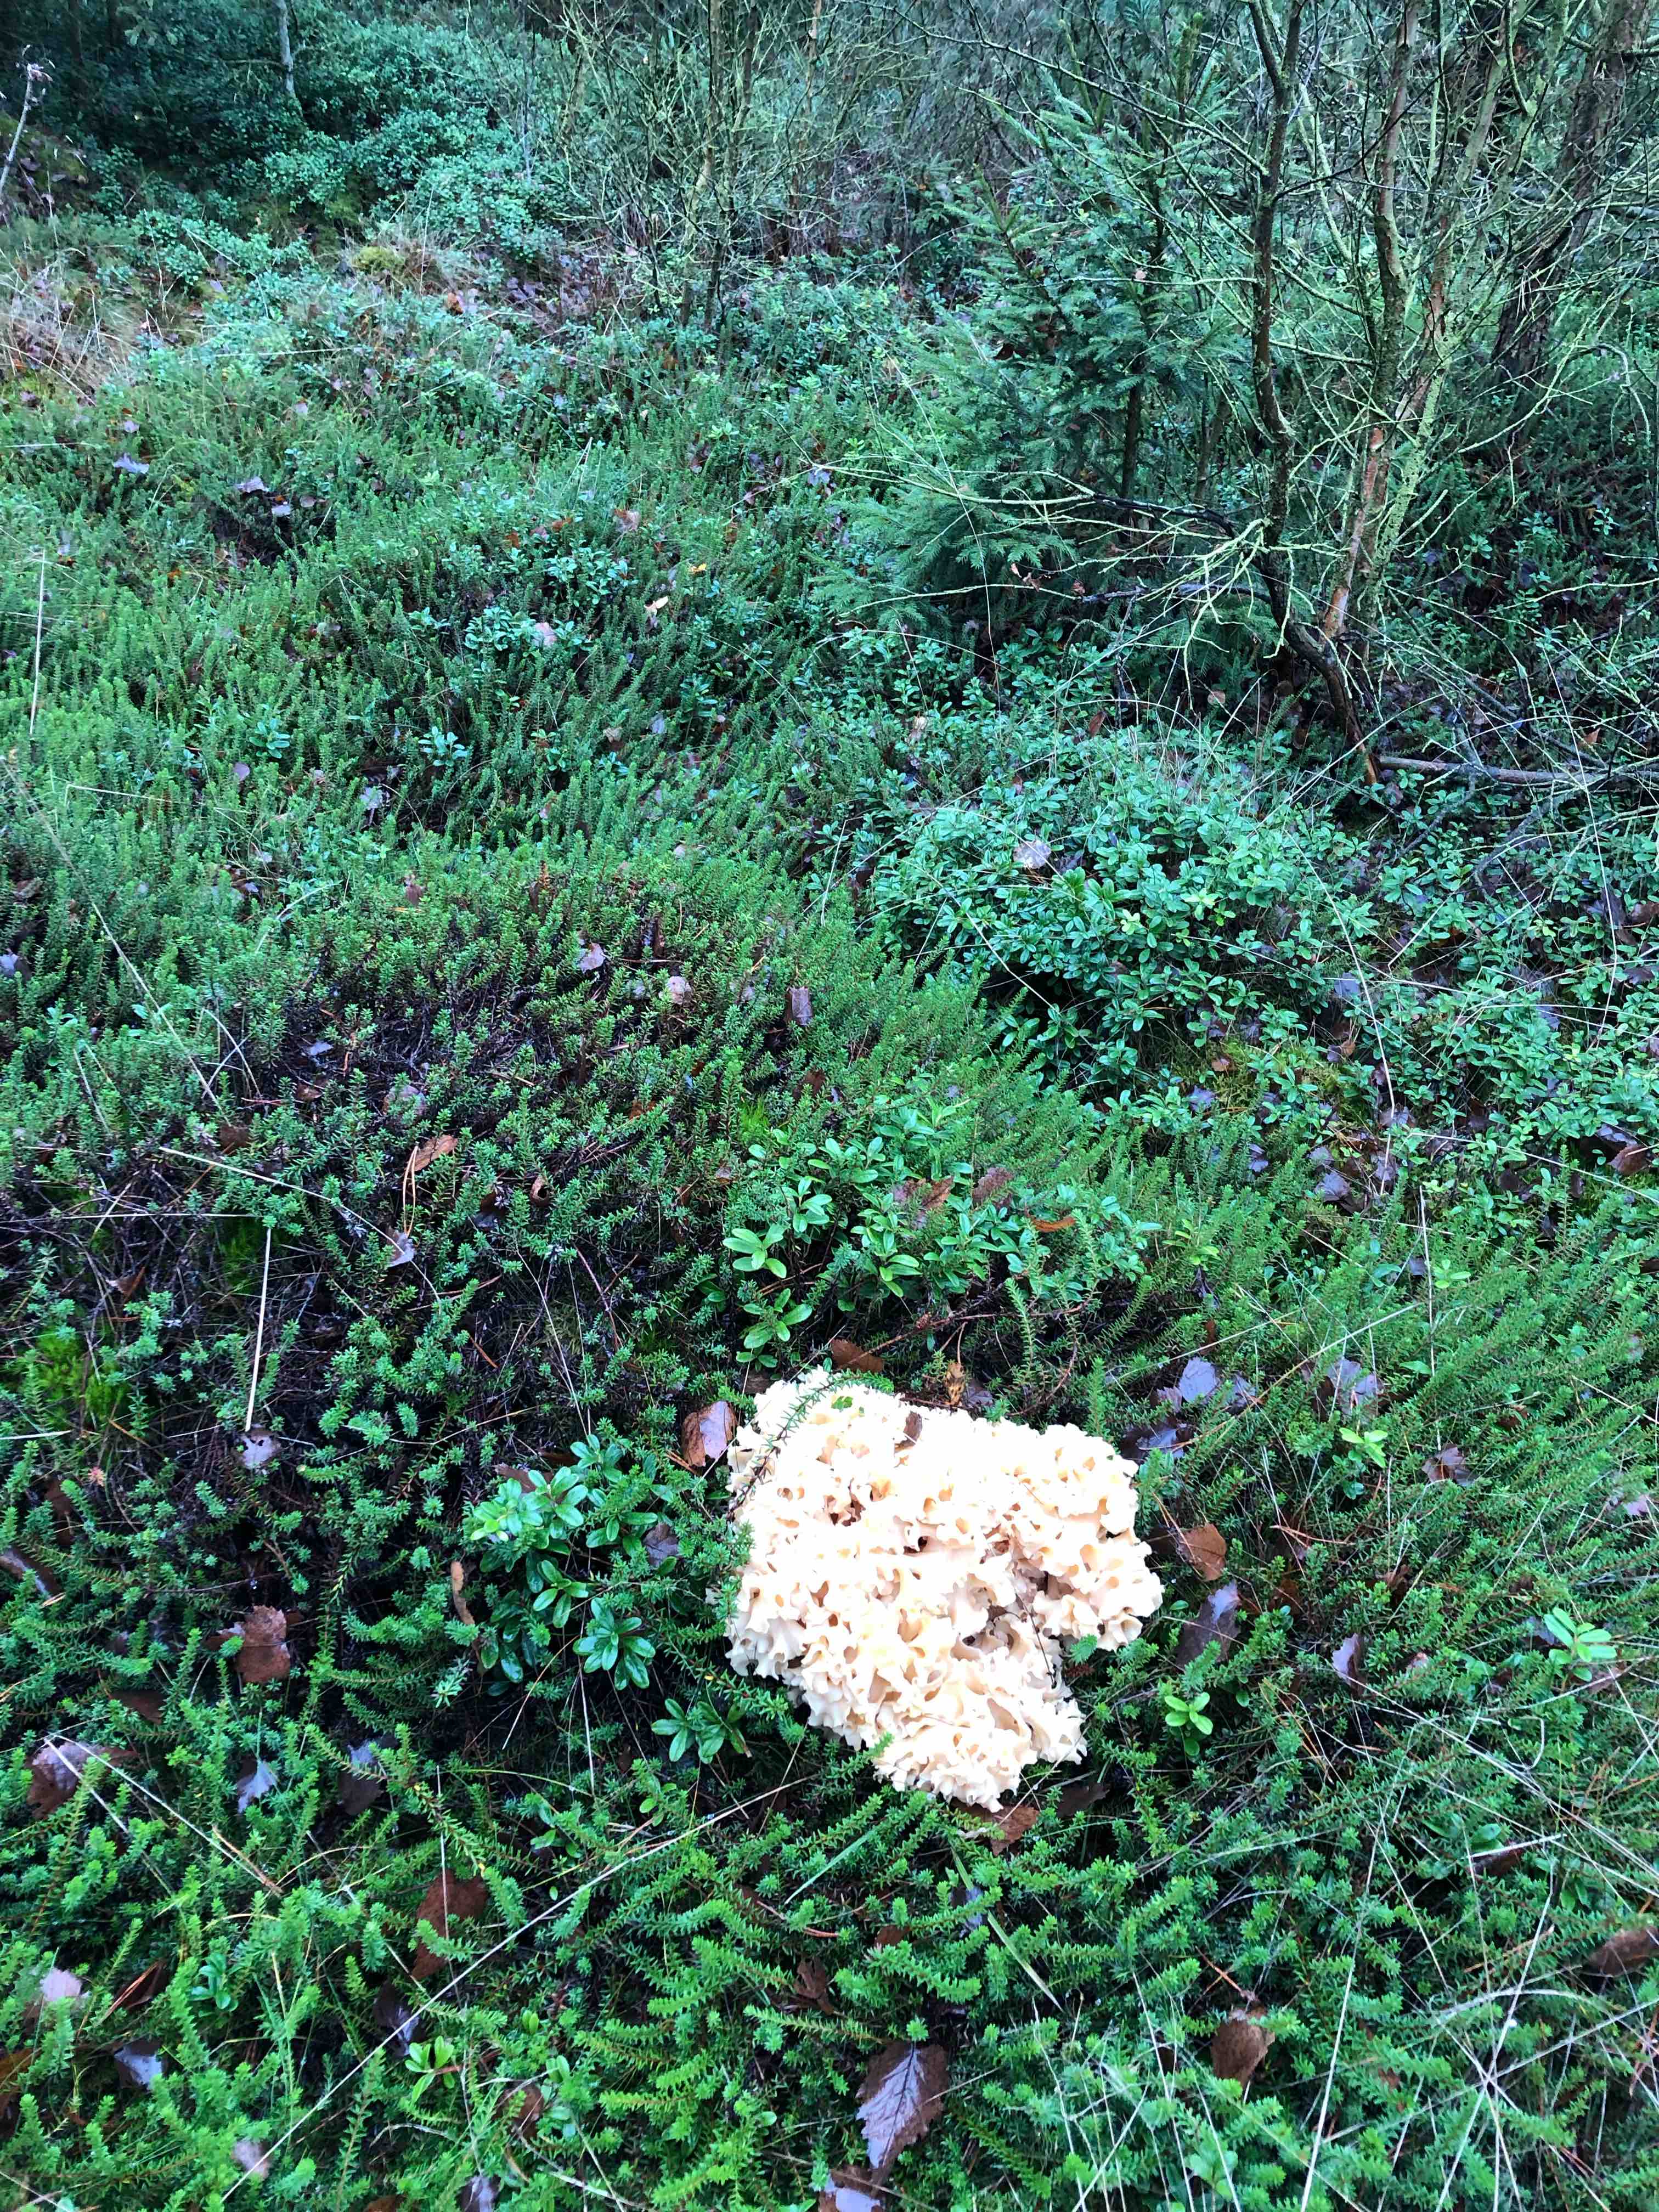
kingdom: Fungi
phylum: Basidiomycota
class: Agaricomycetes
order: Polyporales
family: Sparassidaceae
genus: Sparassis
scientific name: Sparassis crispa
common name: kruset blomkålssvamp
